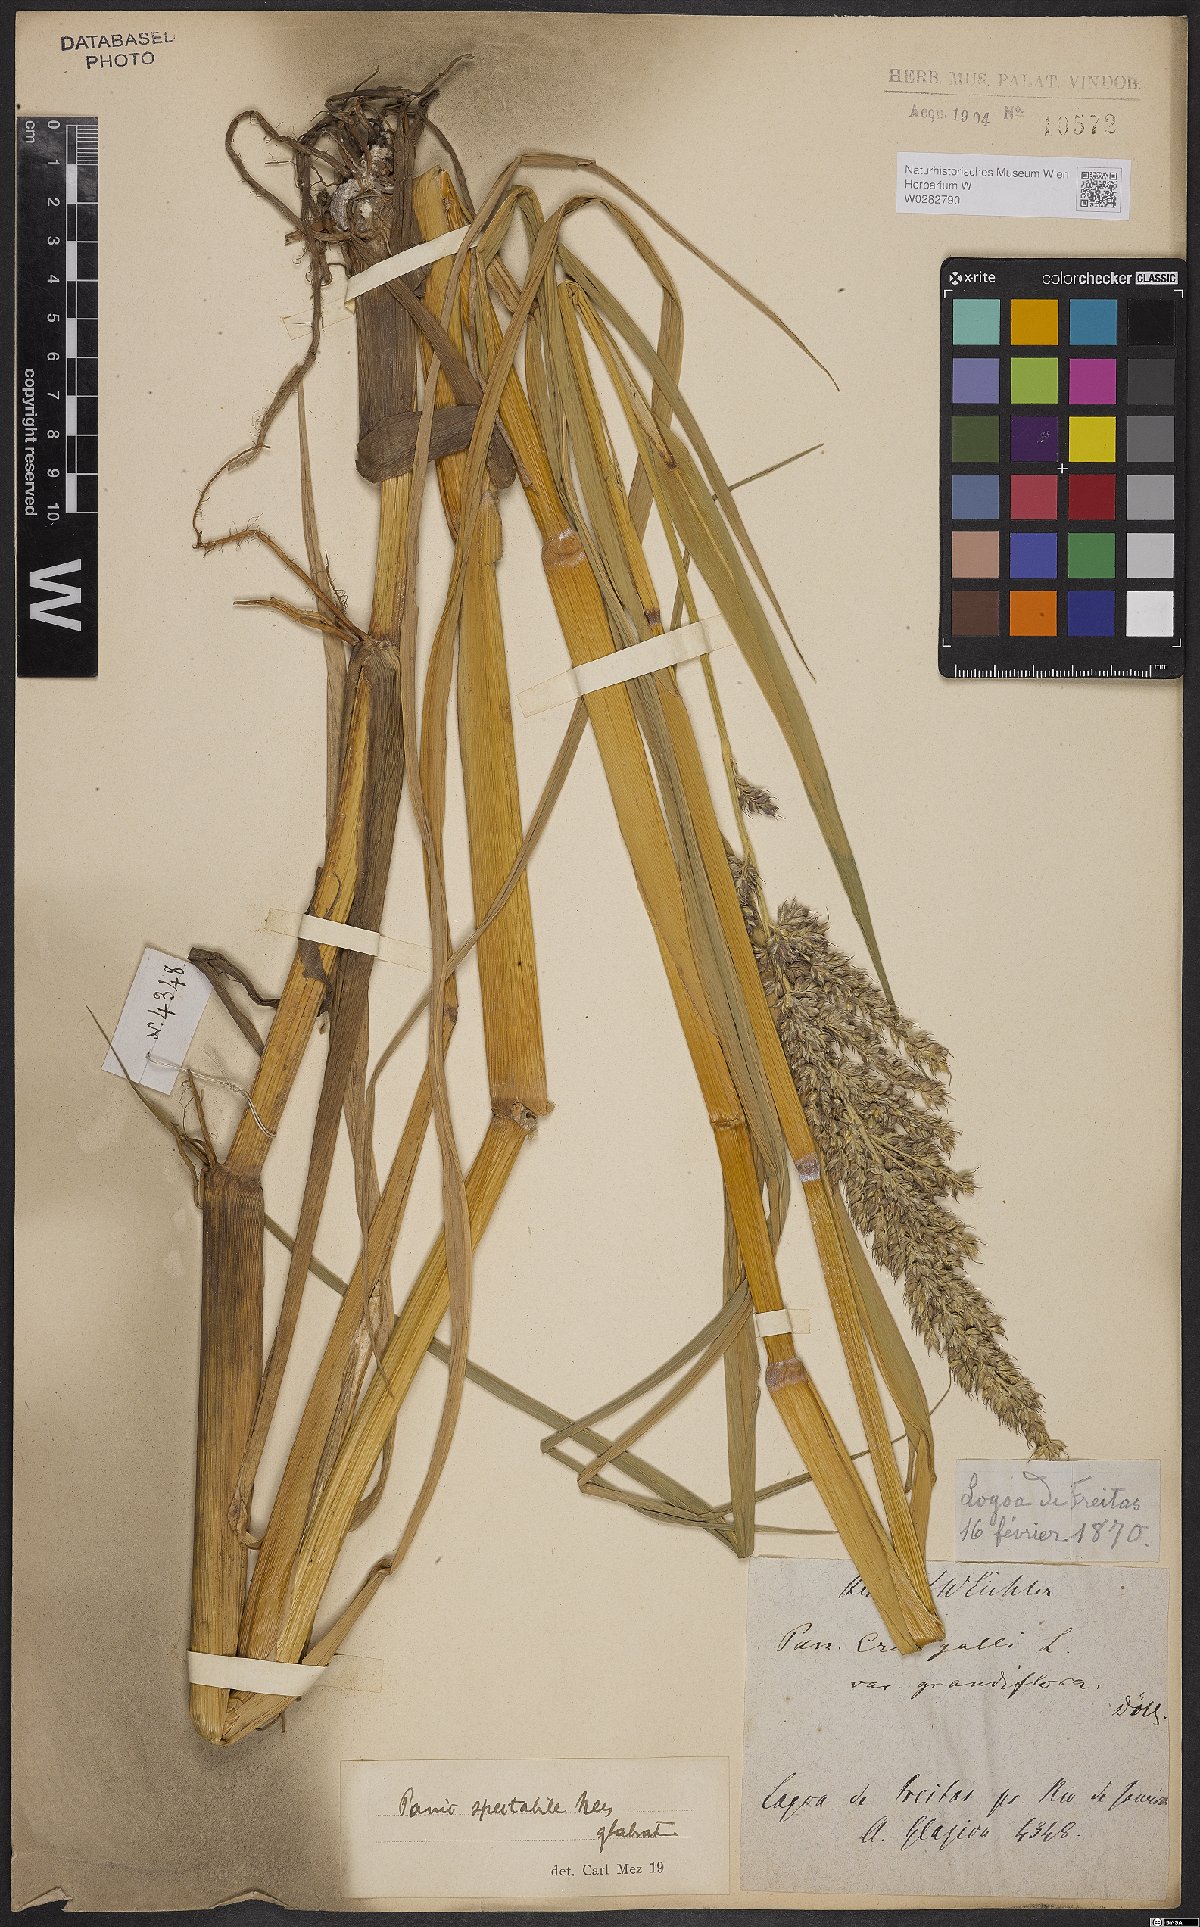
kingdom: Plantae
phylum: Tracheophyta
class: Liliopsida
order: Poales
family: Poaceae
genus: Echinochloa
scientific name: Echinochloa polystachya
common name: Creeping river grass
